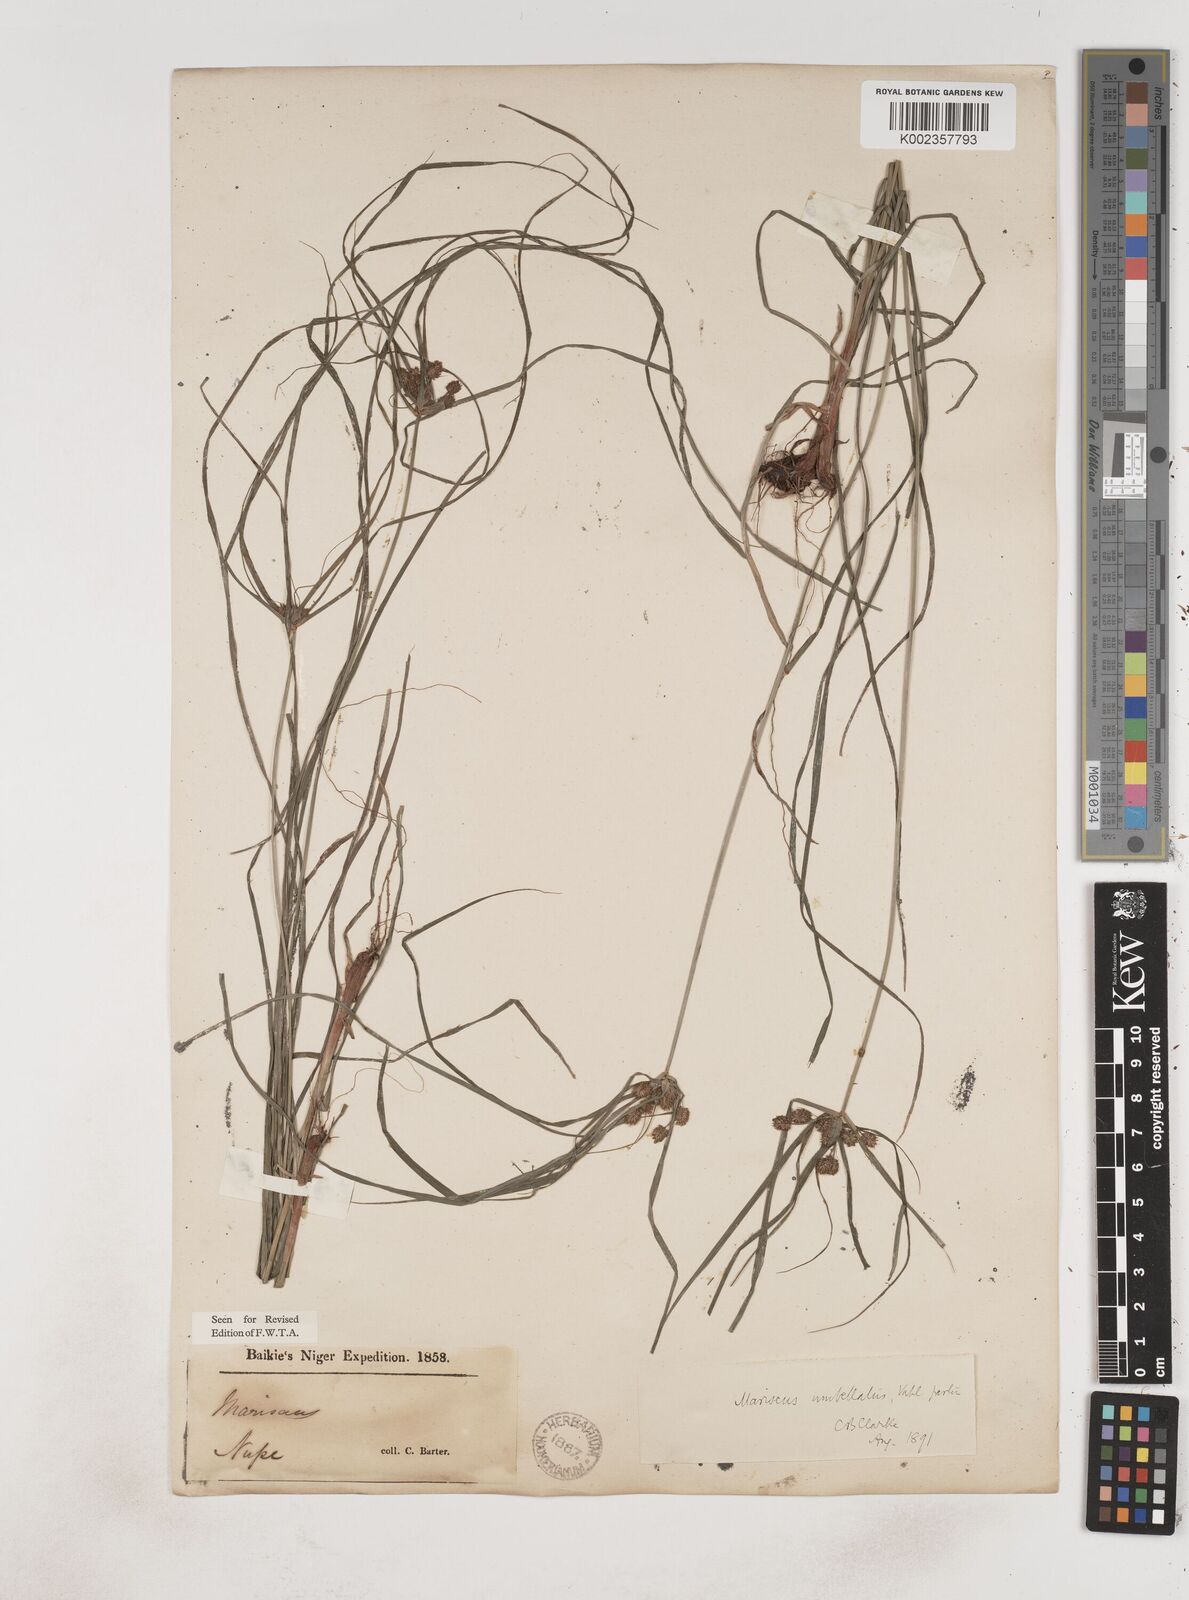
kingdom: Plantae
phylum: Tracheophyta
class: Liliopsida
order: Poales
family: Cyperaceae
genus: Cyperus
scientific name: Cyperus sublimis
